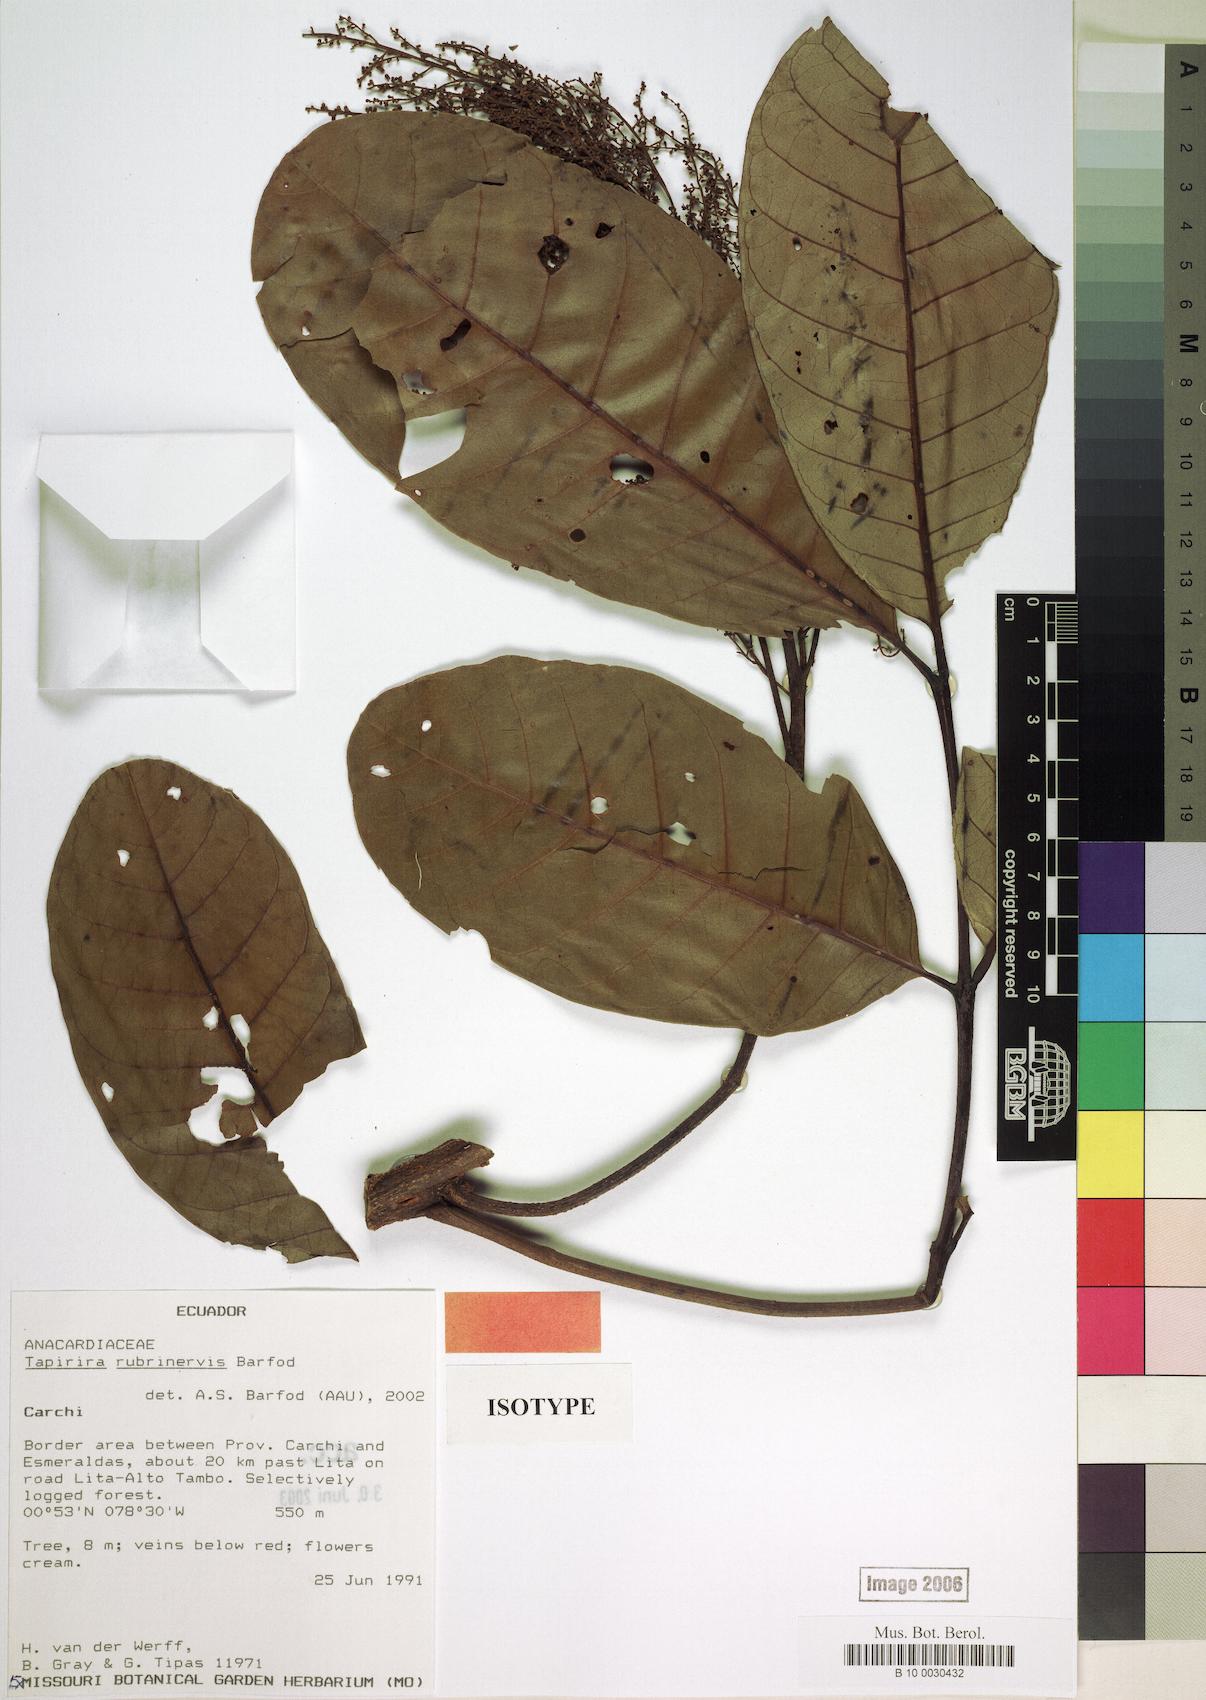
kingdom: Plantae
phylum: Tracheophyta
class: Magnoliopsida
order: Sapindales
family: Anacardiaceae
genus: Tapirira
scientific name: Tapirira rubrinervis
